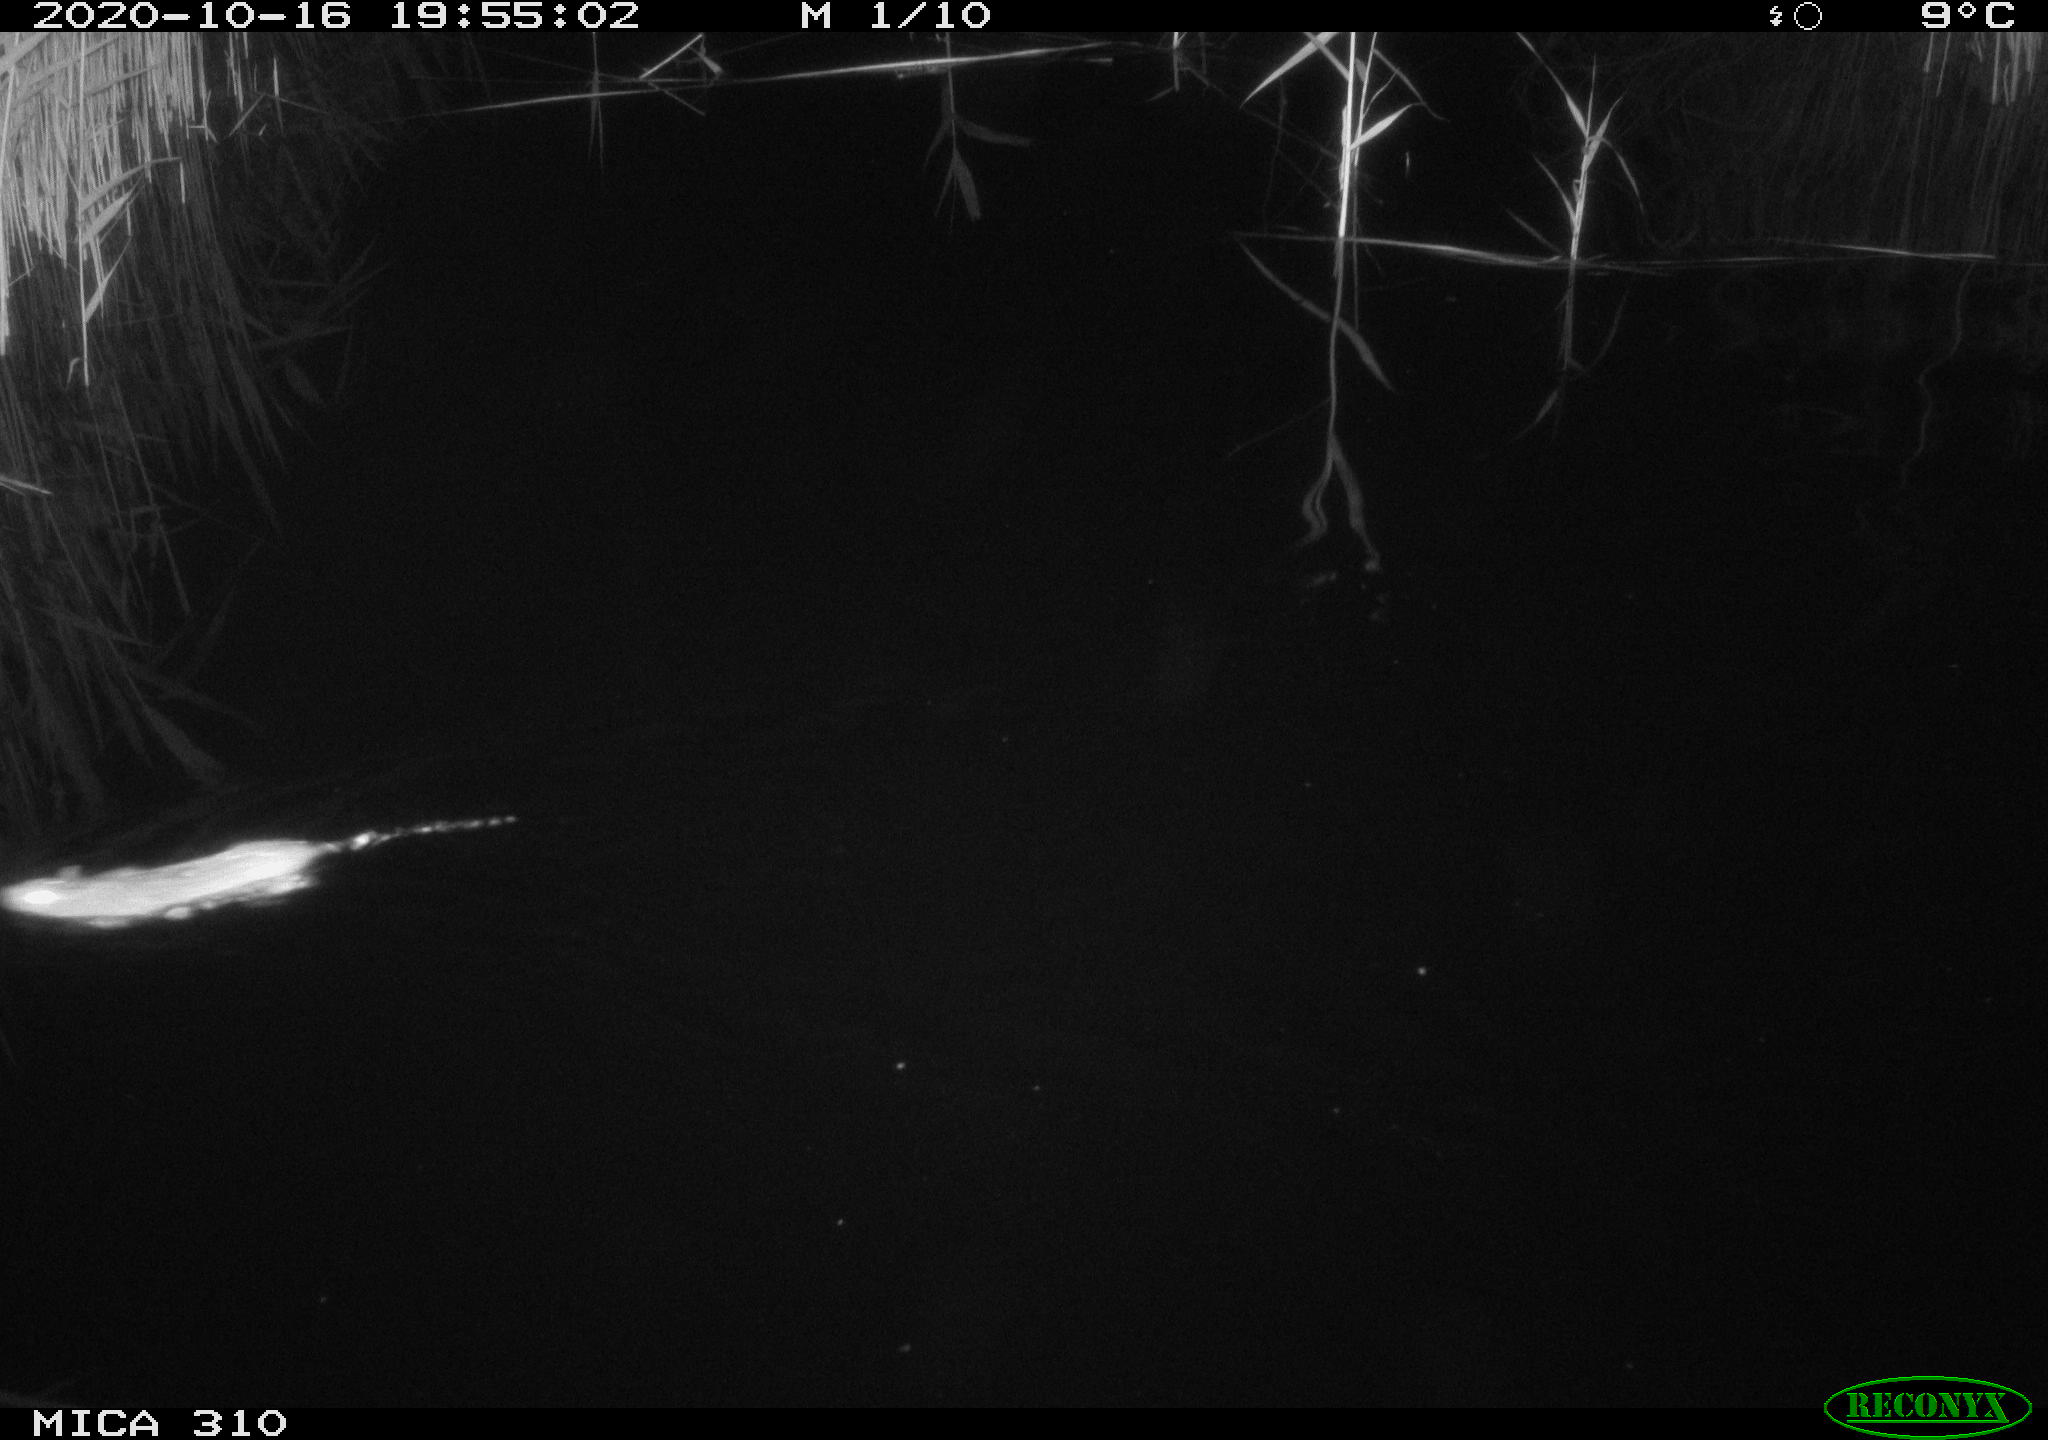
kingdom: Animalia
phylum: Chordata
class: Mammalia
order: Rodentia
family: Muridae
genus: Rattus
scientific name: Rattus norvegicus
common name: Brown rat
